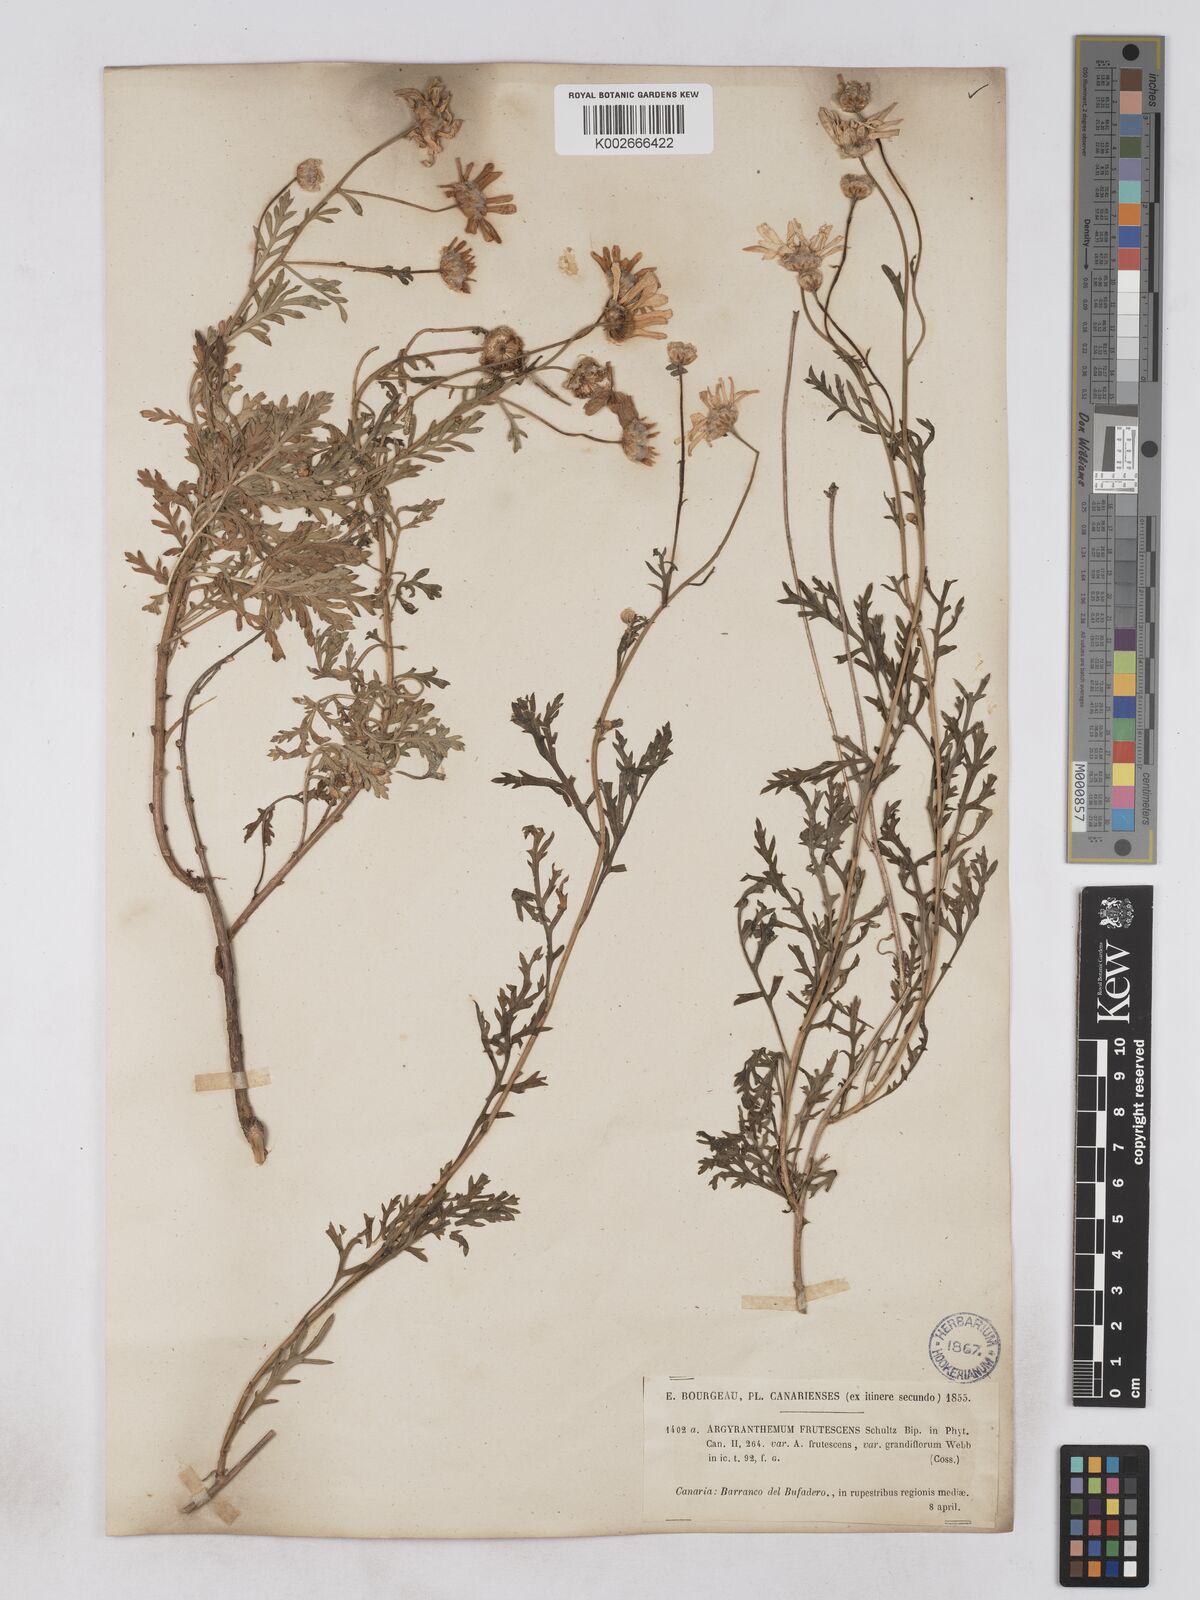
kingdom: Plantae
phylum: Tracheophyta
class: Magnoliopsida
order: Asterales
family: Asteraceae
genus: Argyranthemum
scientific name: Argyranthemum frutescens
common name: Paris daisy
